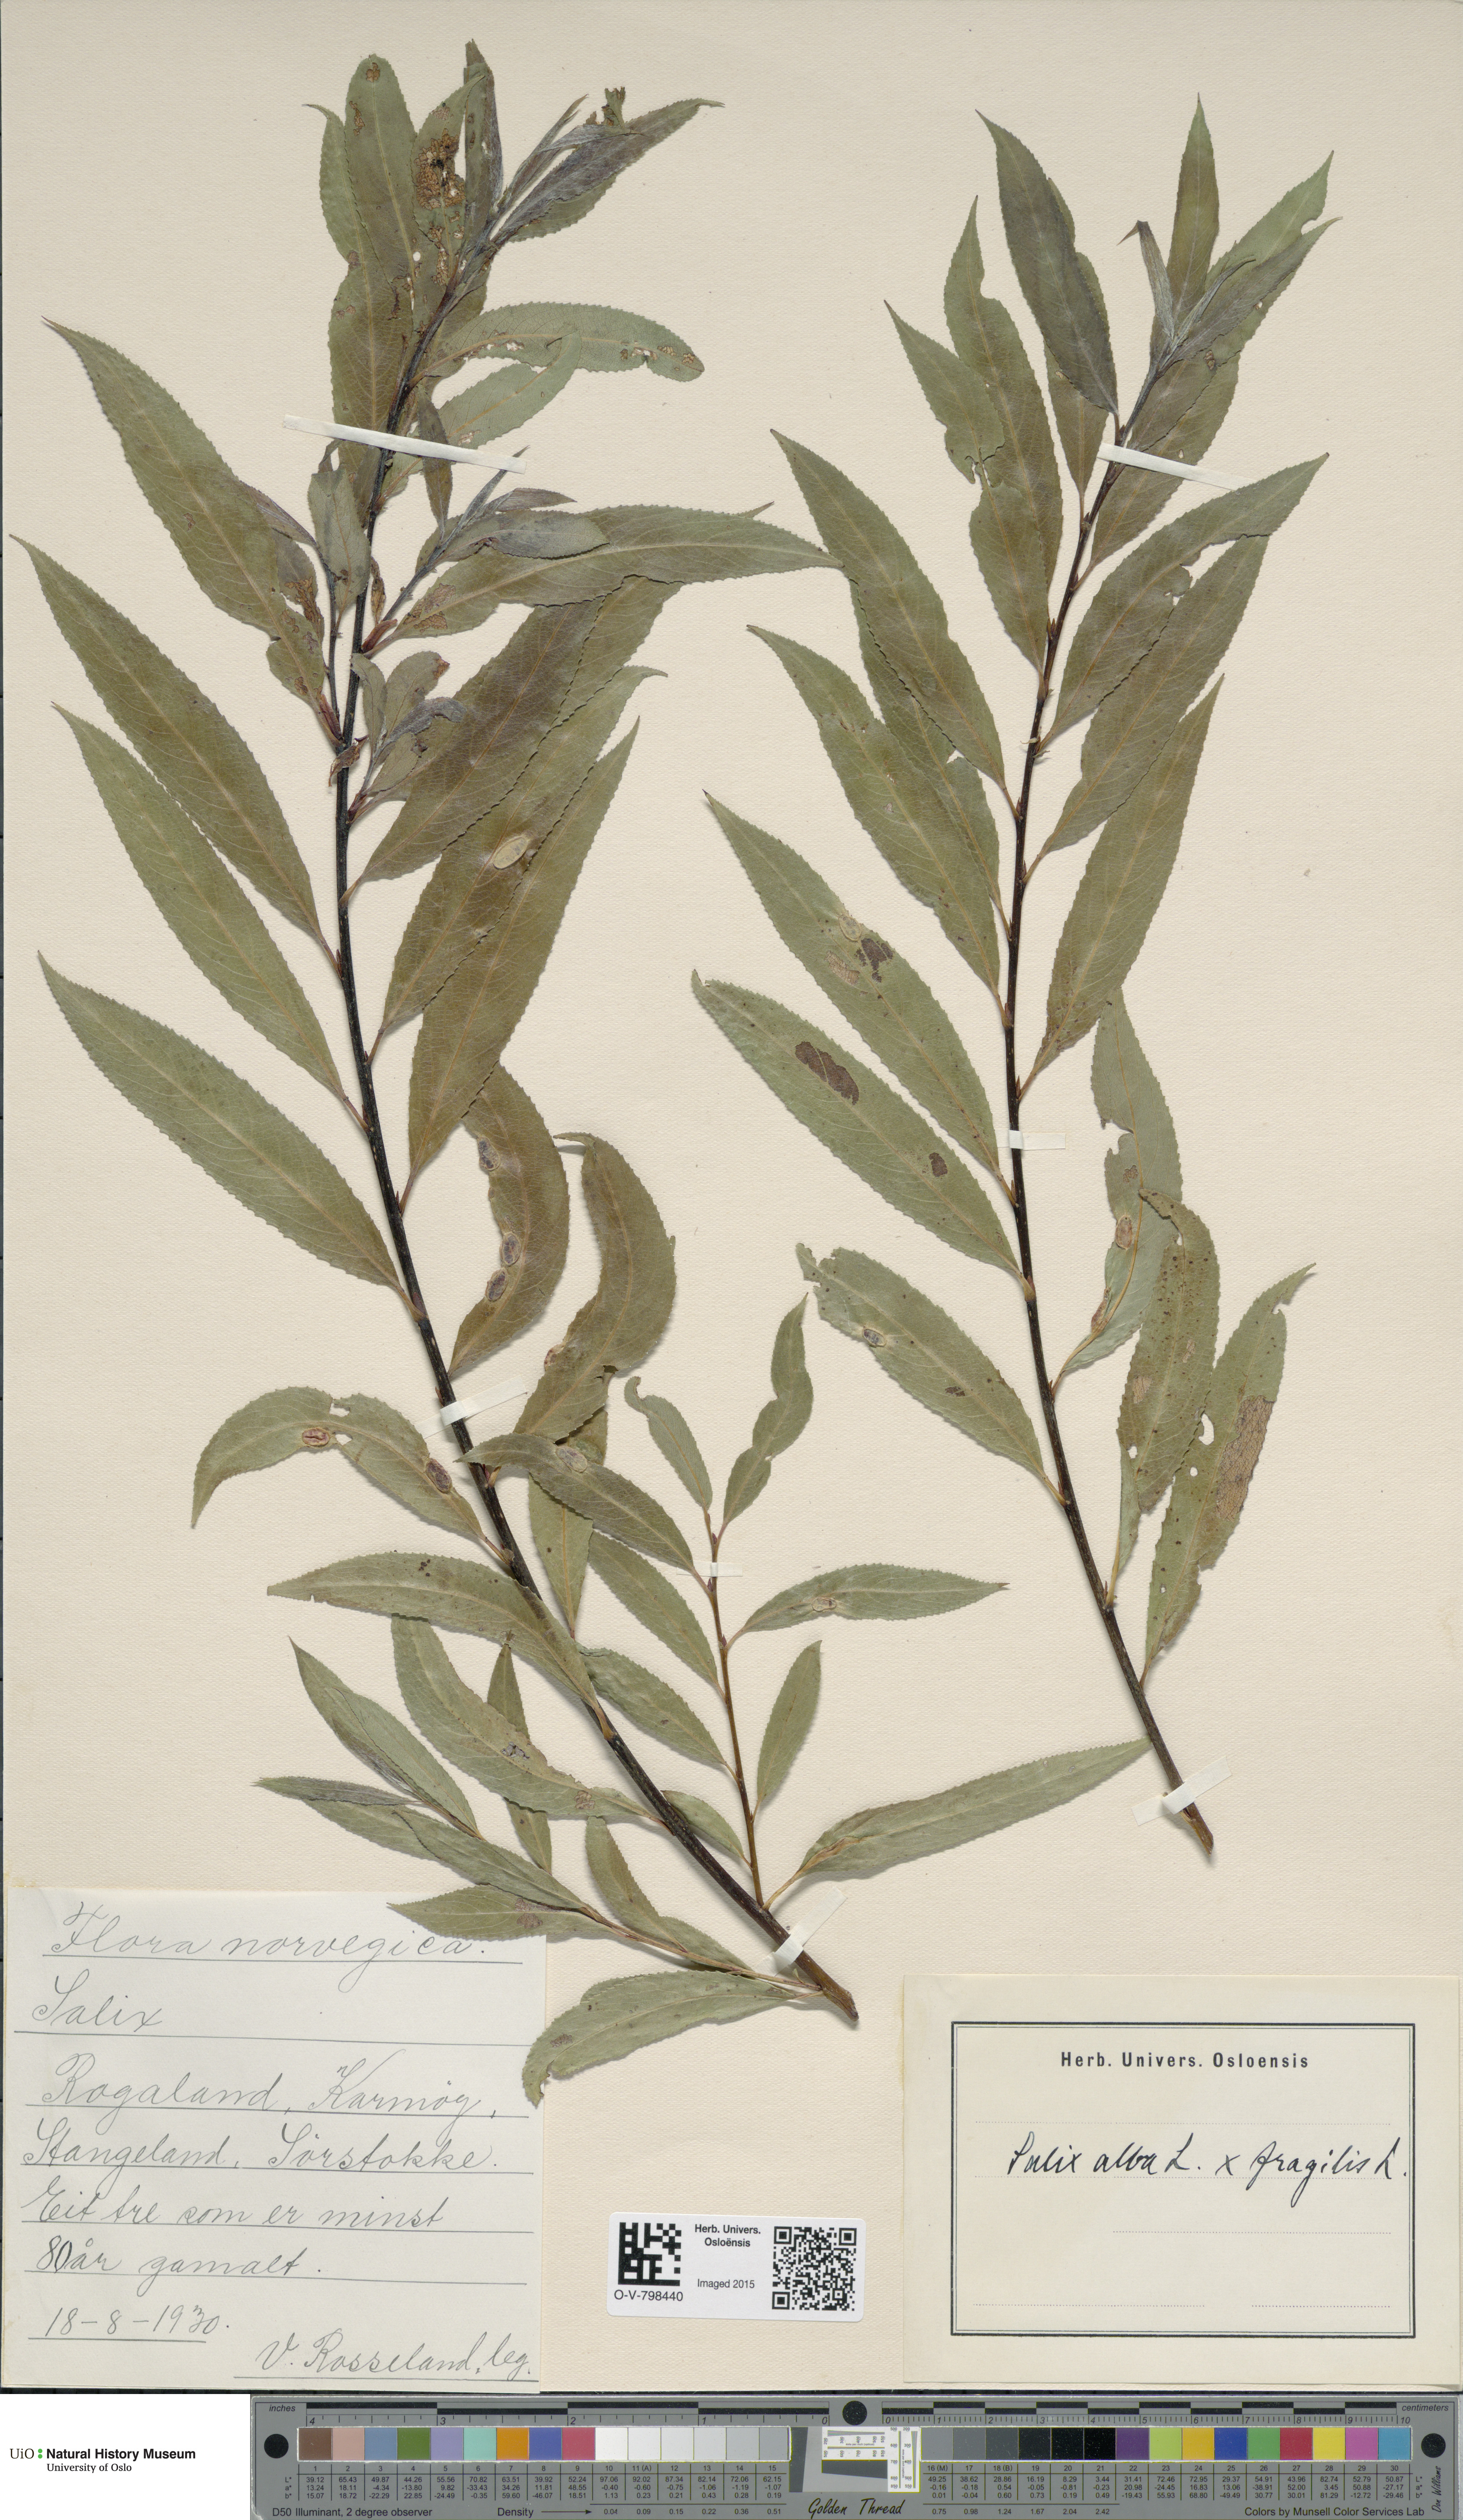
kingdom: Plantae
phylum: Tracheophyta
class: Magnoliopsida
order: Malpighiales
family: Salicaceae
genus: Salix
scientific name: Salix
